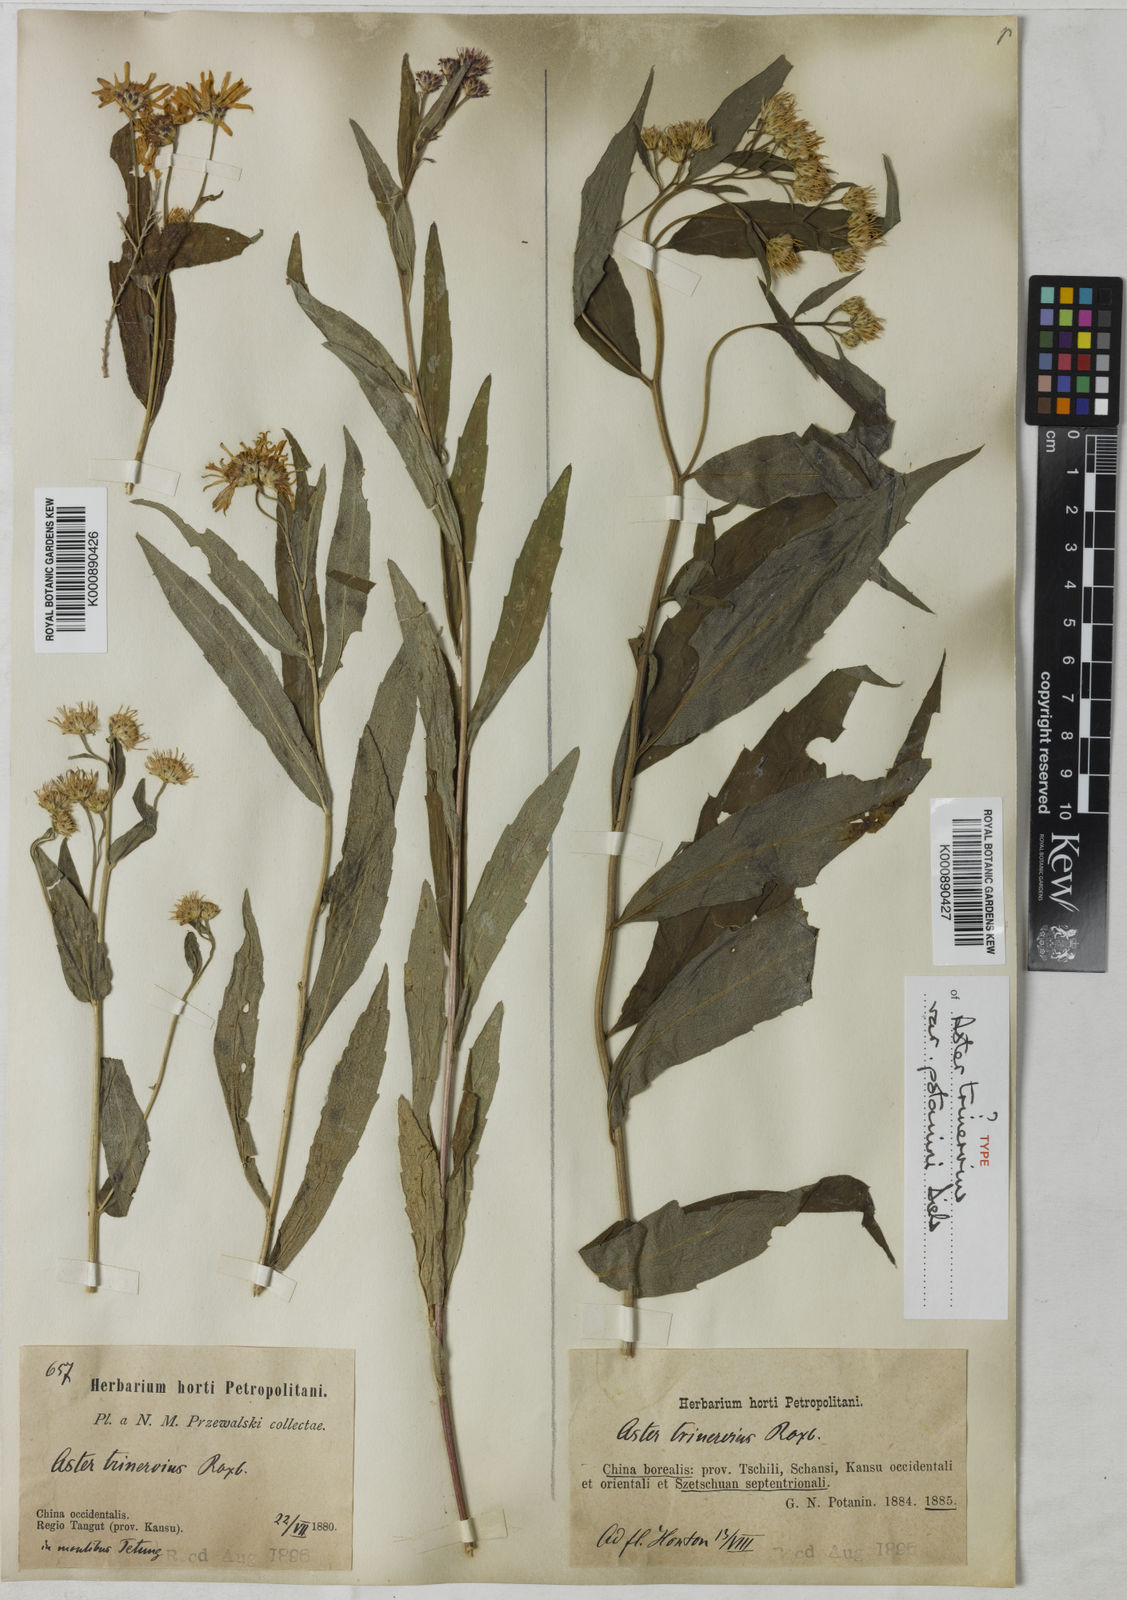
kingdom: Plantae
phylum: Tracheophyta
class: Magnoliopsida
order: Asterales
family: Asteraceae
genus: Aster
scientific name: Aster ageratoides
